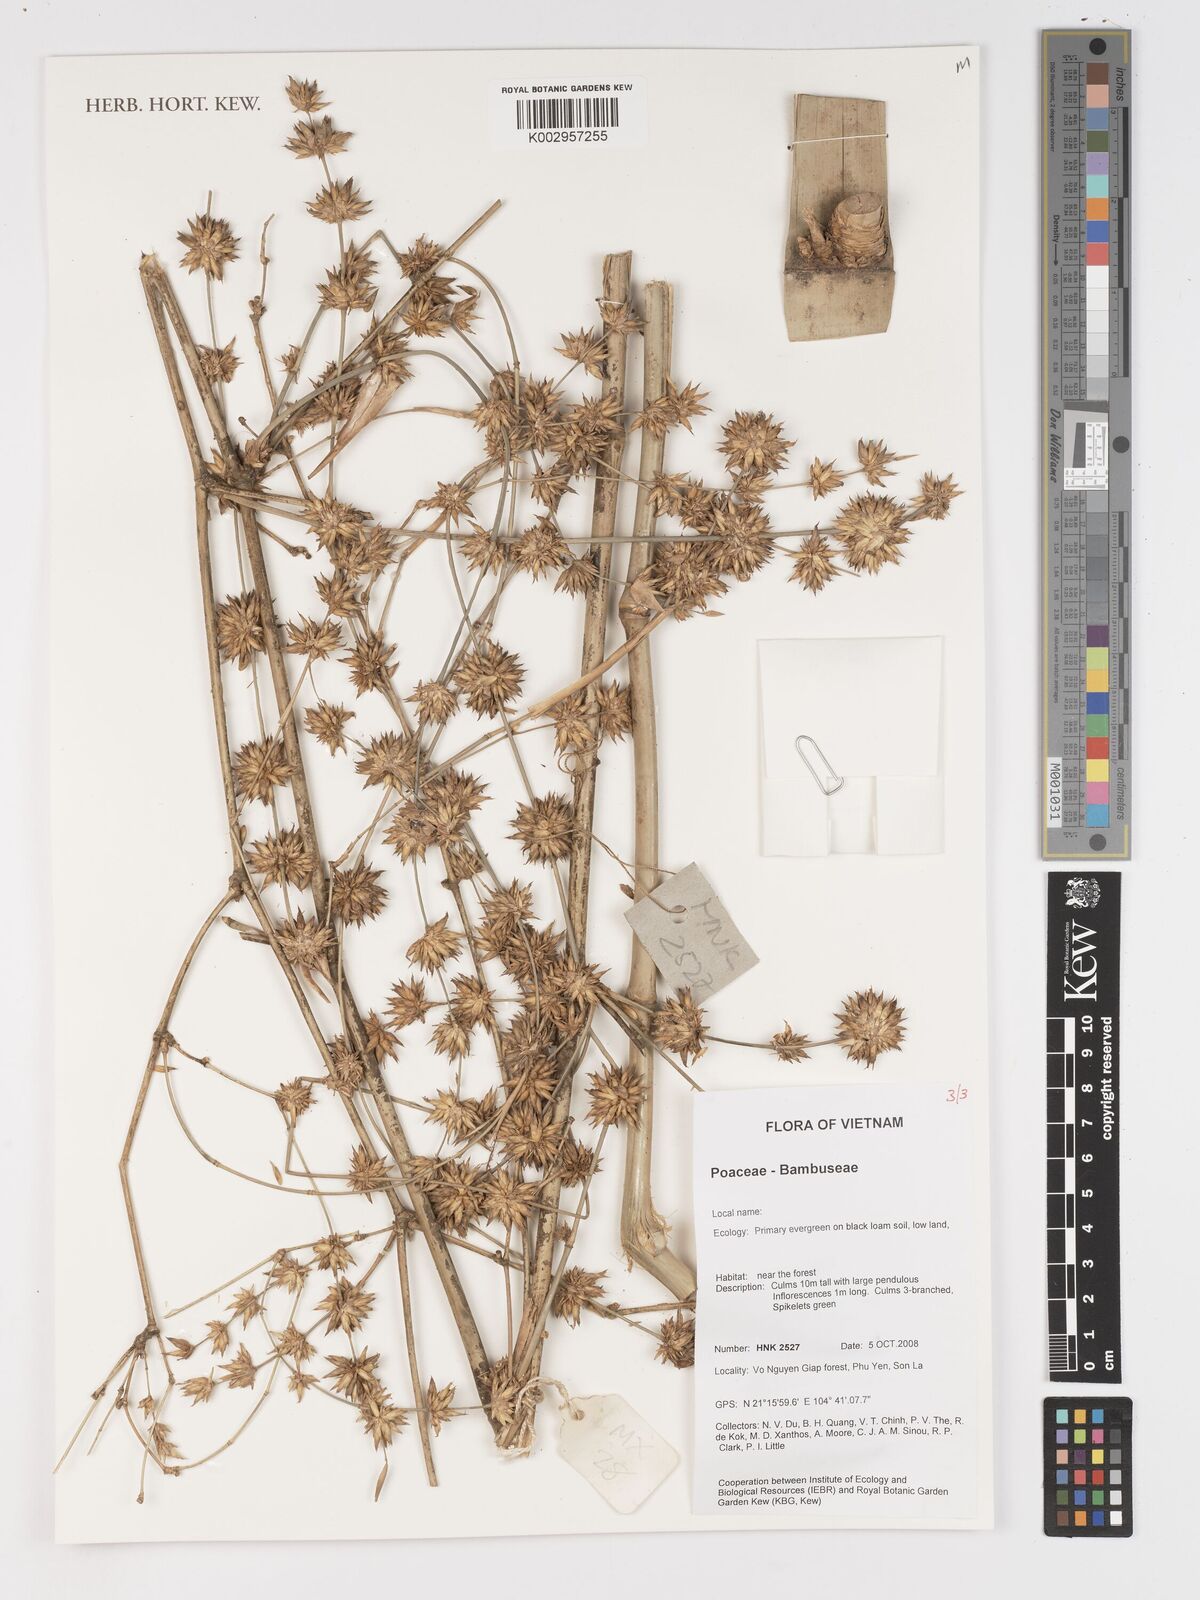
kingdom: Plantae
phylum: Tracheophyta
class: Liliopsida
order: Poales
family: Poaceae
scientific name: Poaceae
